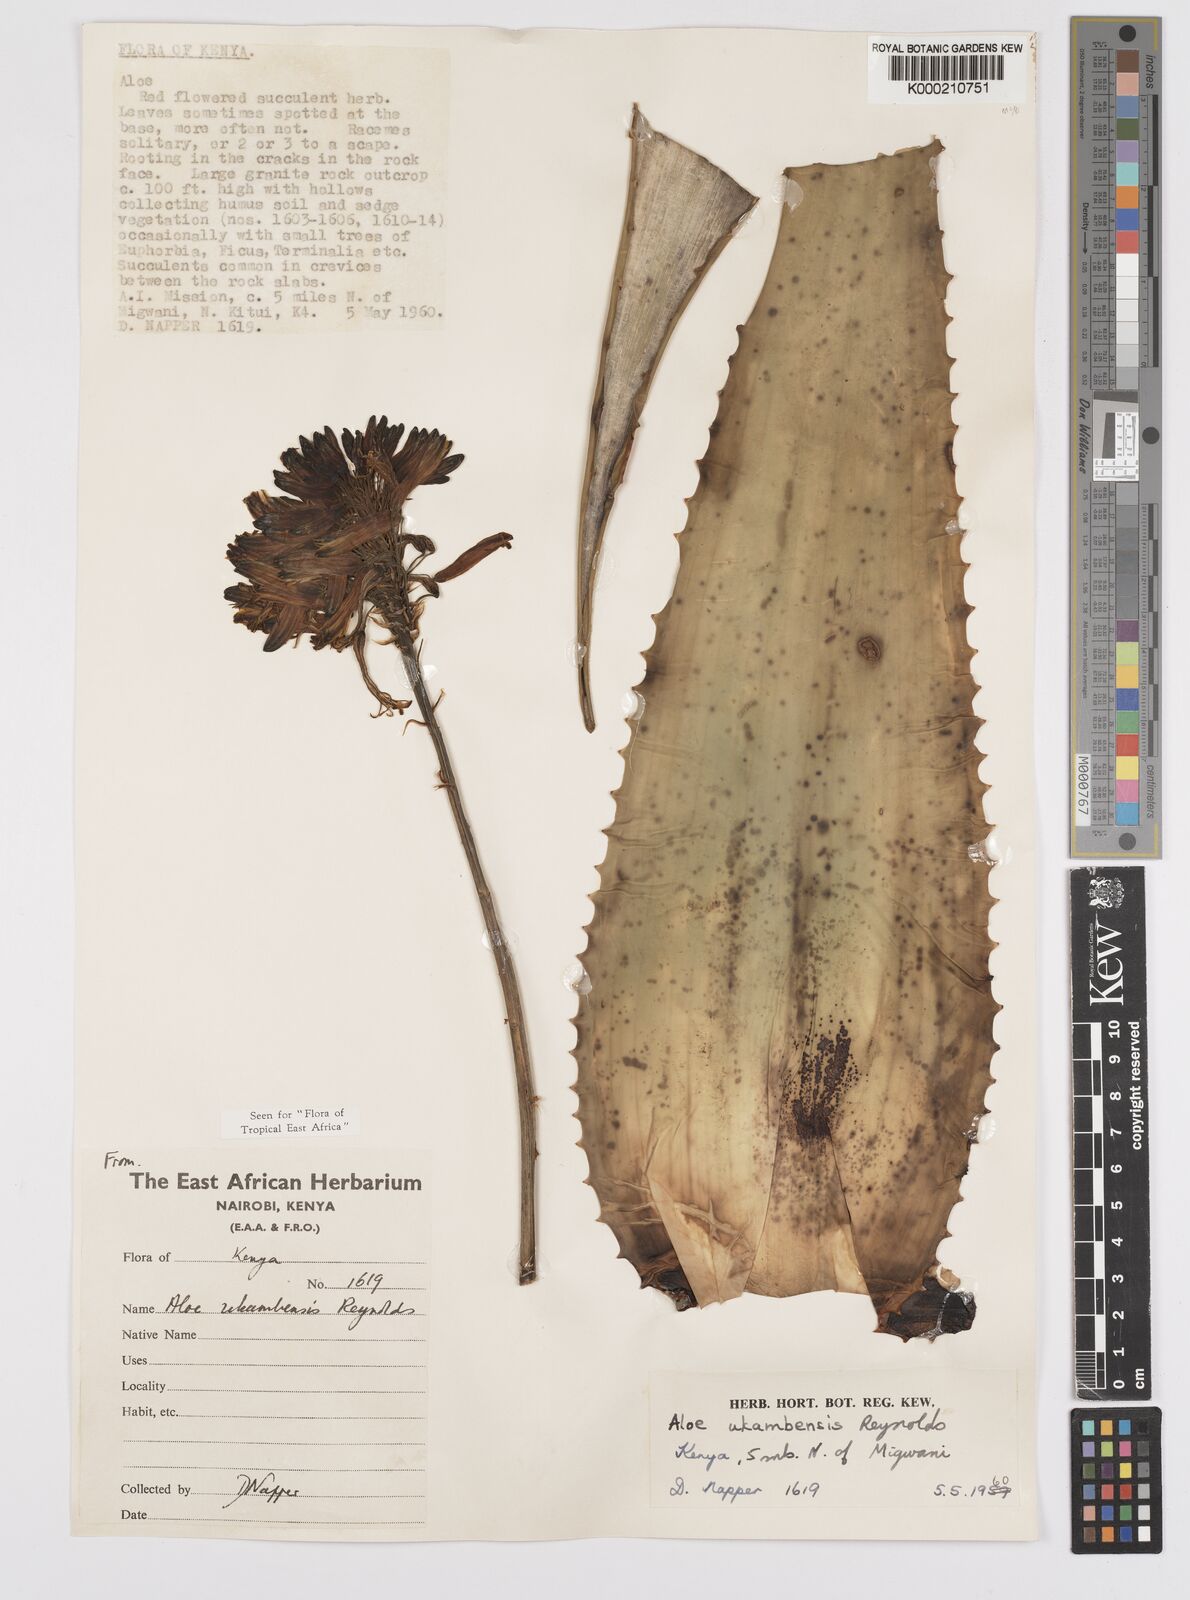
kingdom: Plantae
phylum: Tracheophyta
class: Liliopsida
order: Asparagales
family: Asphodelaceae
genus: Aloe
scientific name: Aloe ukambensis
